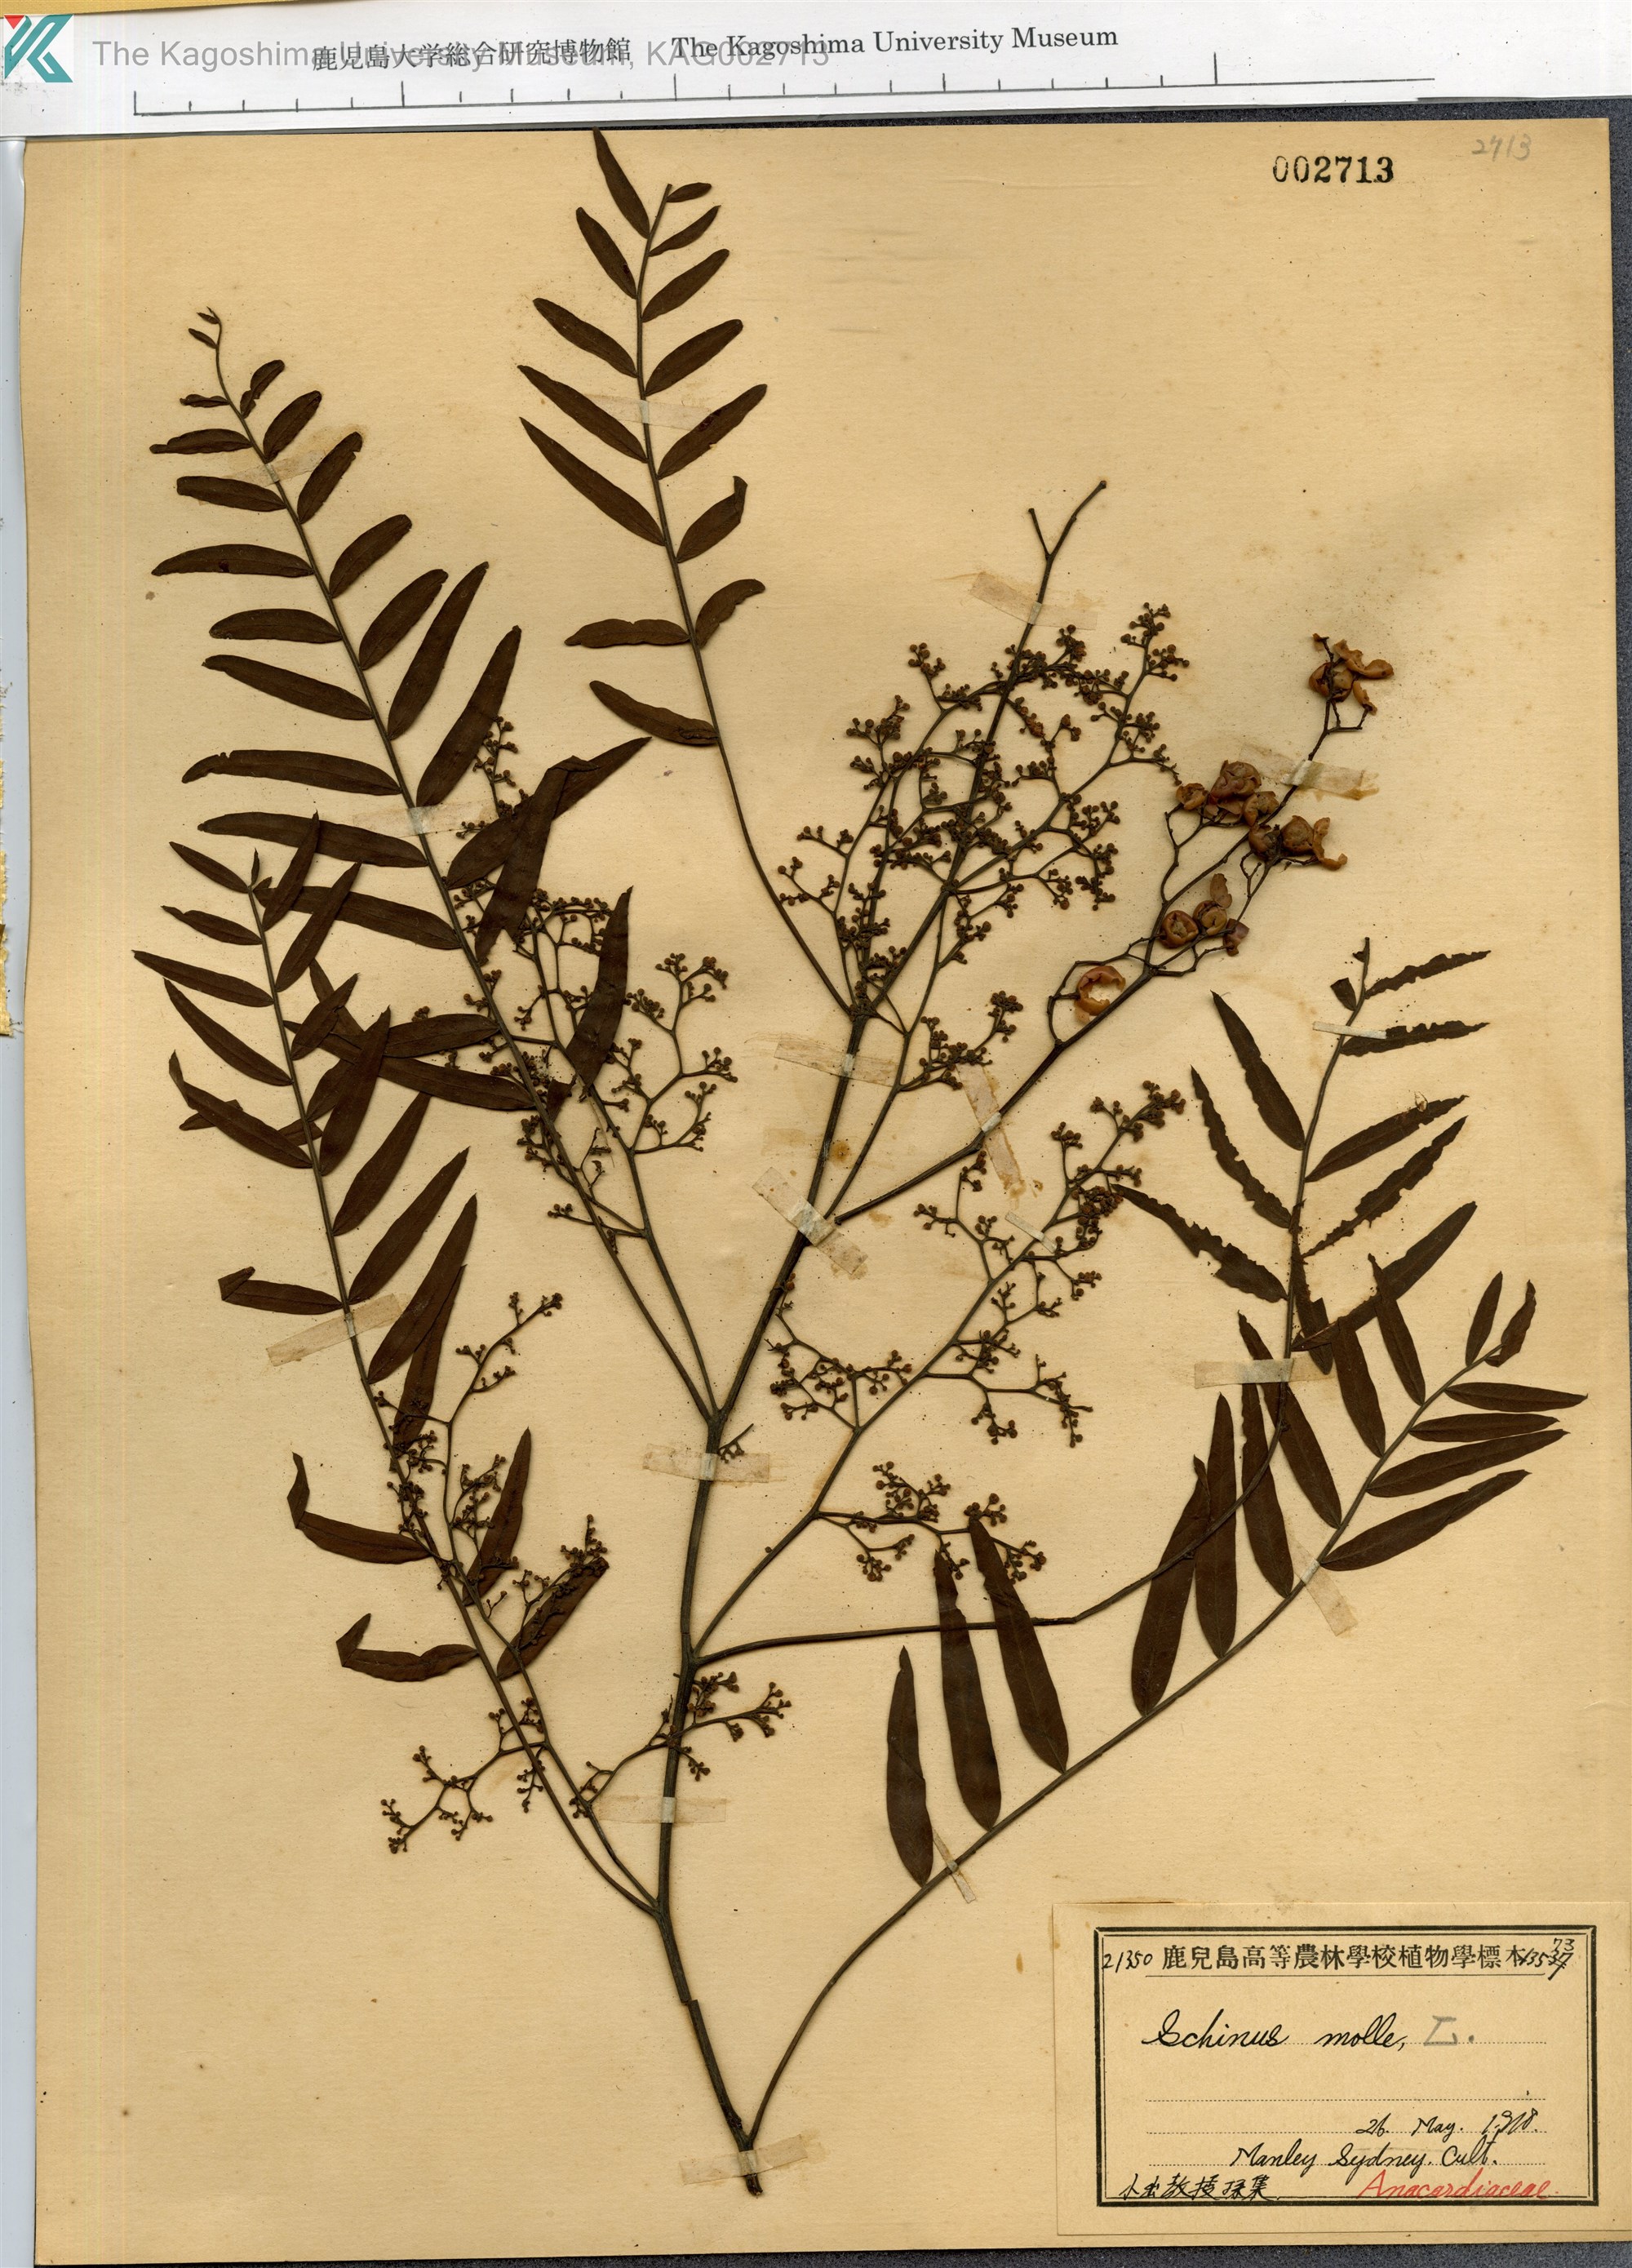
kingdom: Plantae
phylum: Tracheophyta
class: Magnoliopsida
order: Sapindales
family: Anacardiaceae
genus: Schinus
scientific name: Schinus molle
